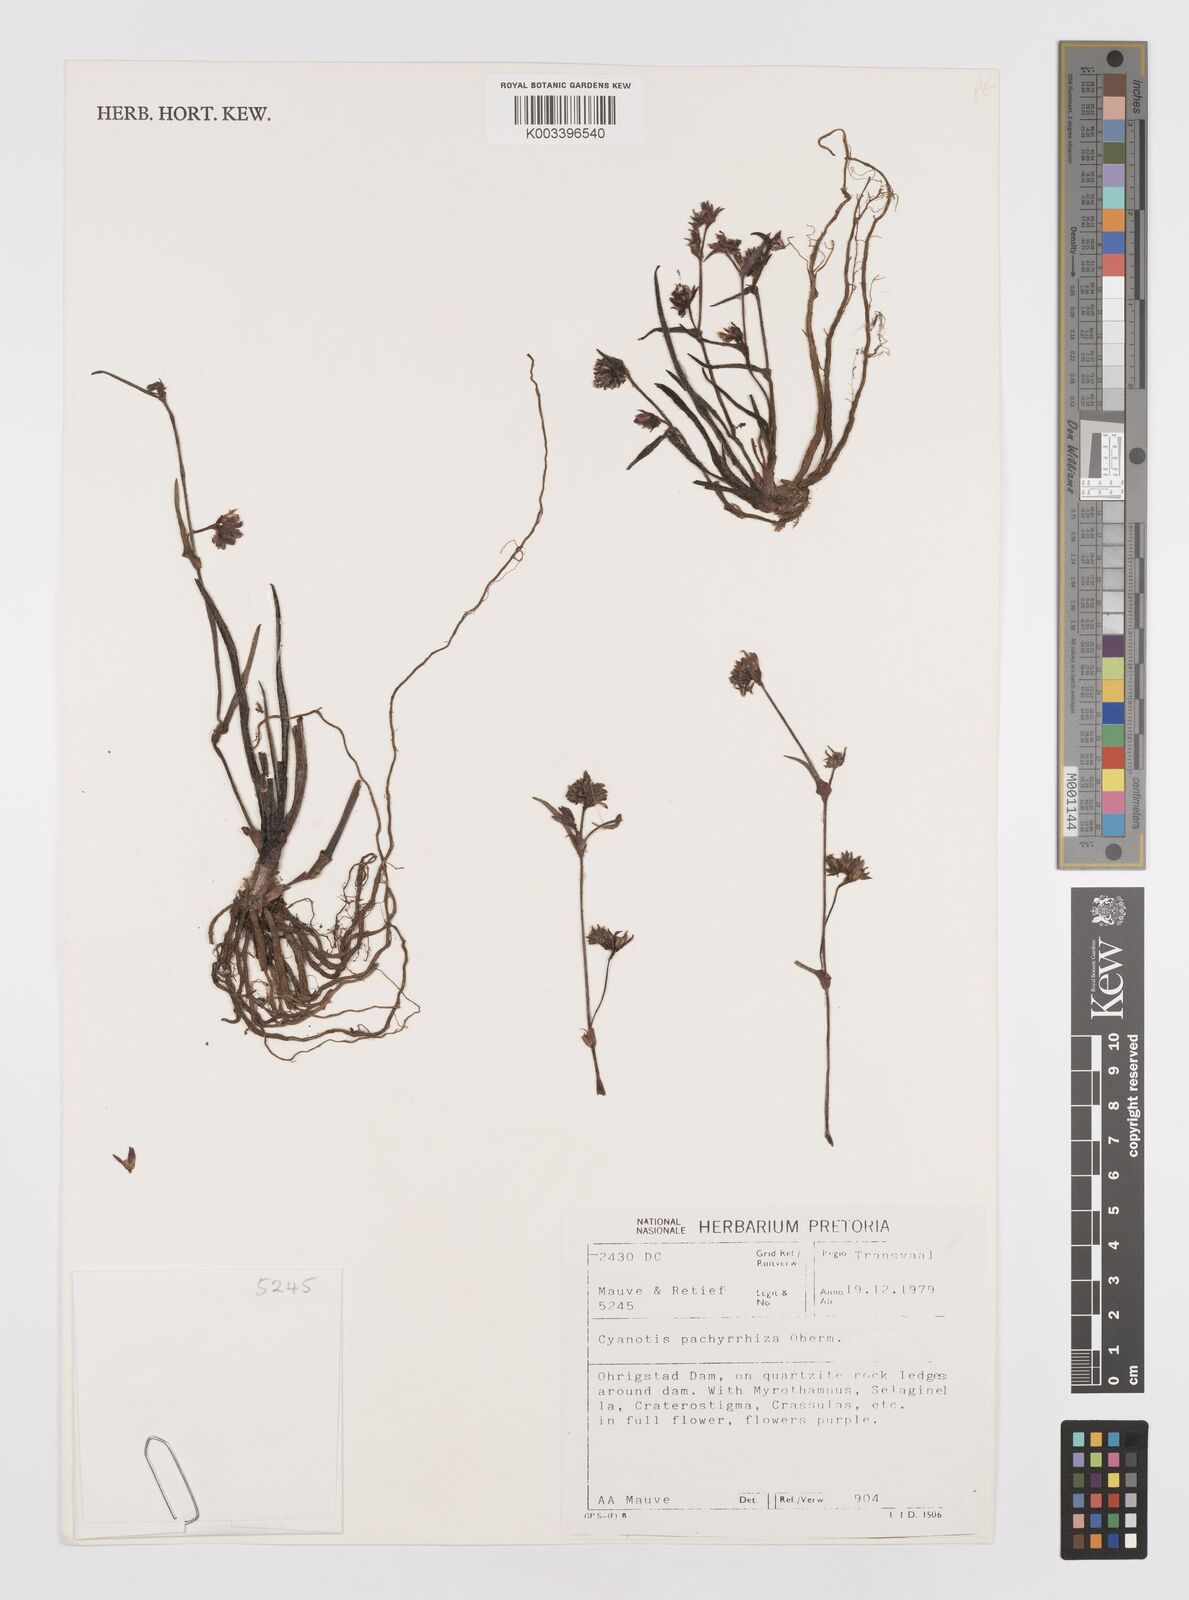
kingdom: Plantae
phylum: Tracheophyta
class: Liliopsida
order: Commelinales
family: Commelinaceae
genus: Cyanotis
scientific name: Cyanotis pachyrrhiza
